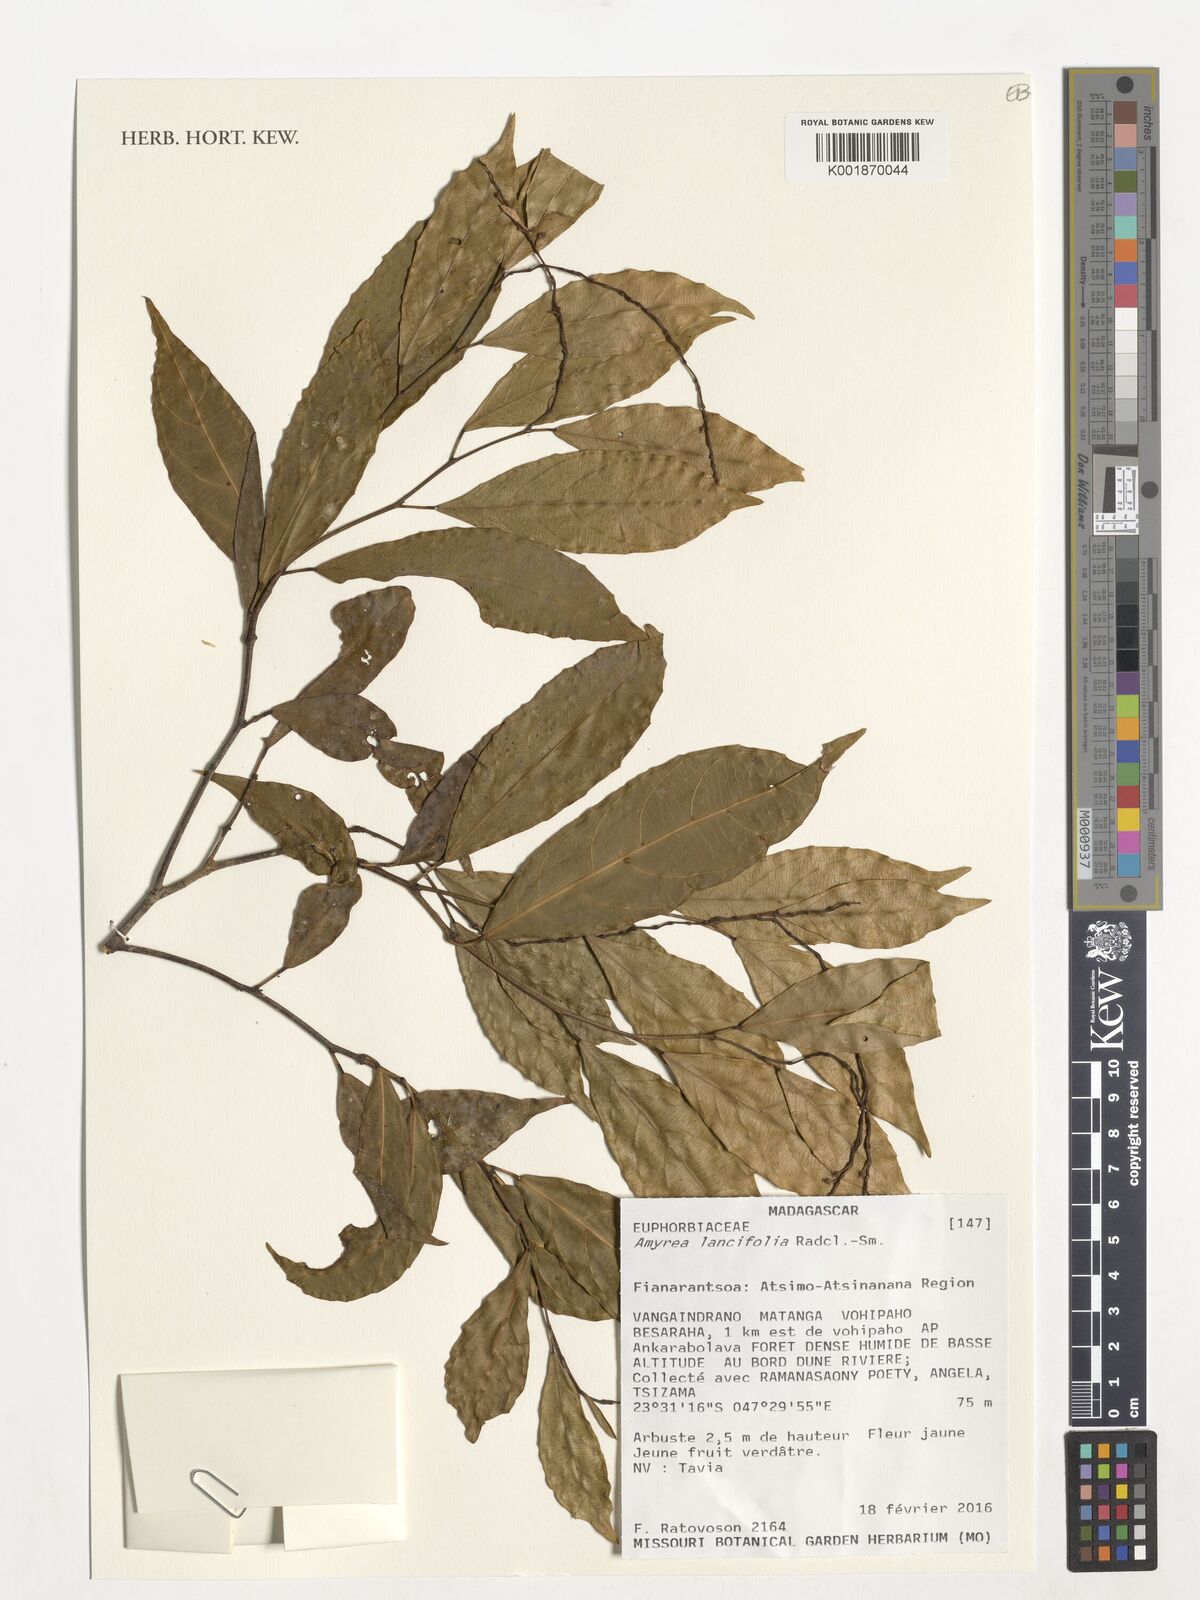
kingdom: Plantae
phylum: Tracheophyta
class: Magnoliopsida
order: Malpighiales
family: Euphorbiaceae
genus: Amyrea
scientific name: Amyrea lancifolia
